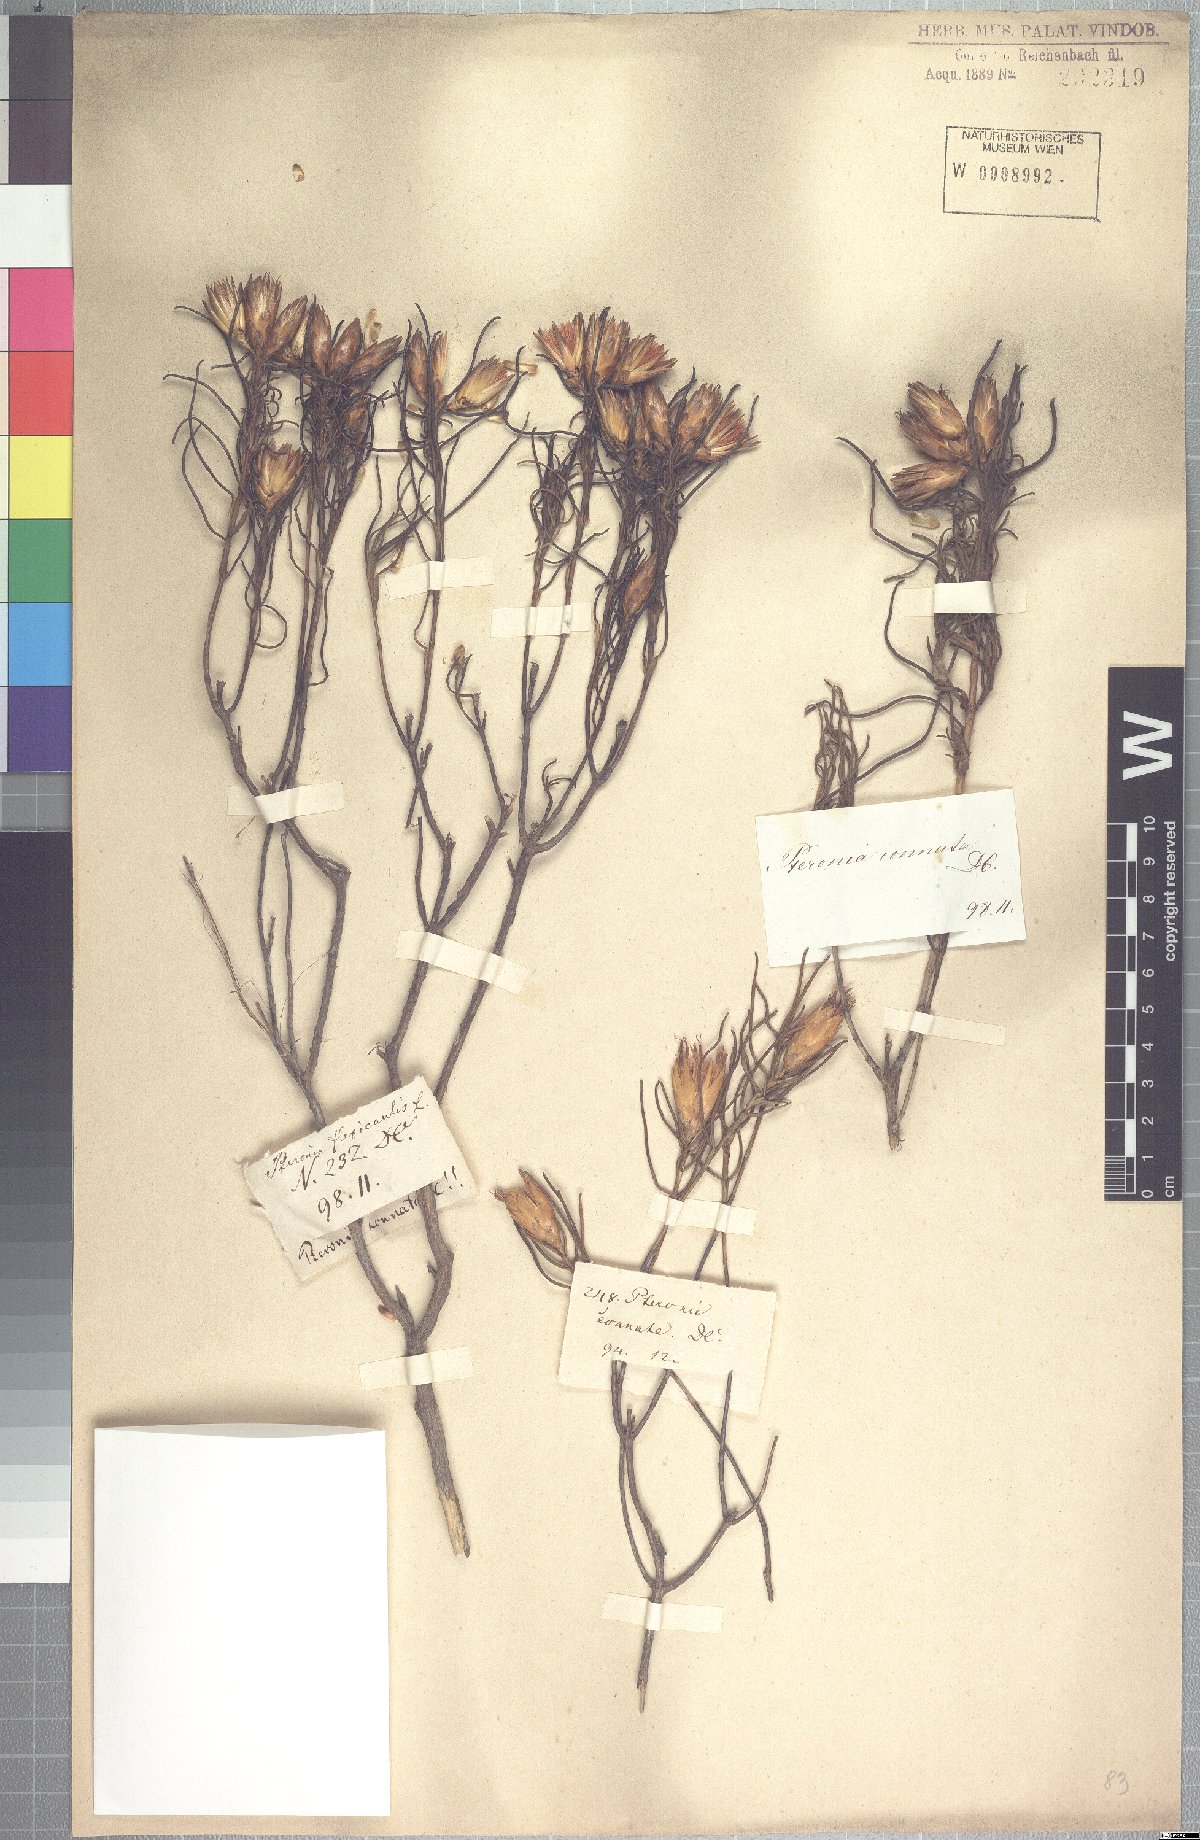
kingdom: Plantae
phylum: Tracheophyta
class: Magnoliopsida
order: Asterales
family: Asteraceae
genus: Pteronia
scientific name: Pteronia flexicaulis
